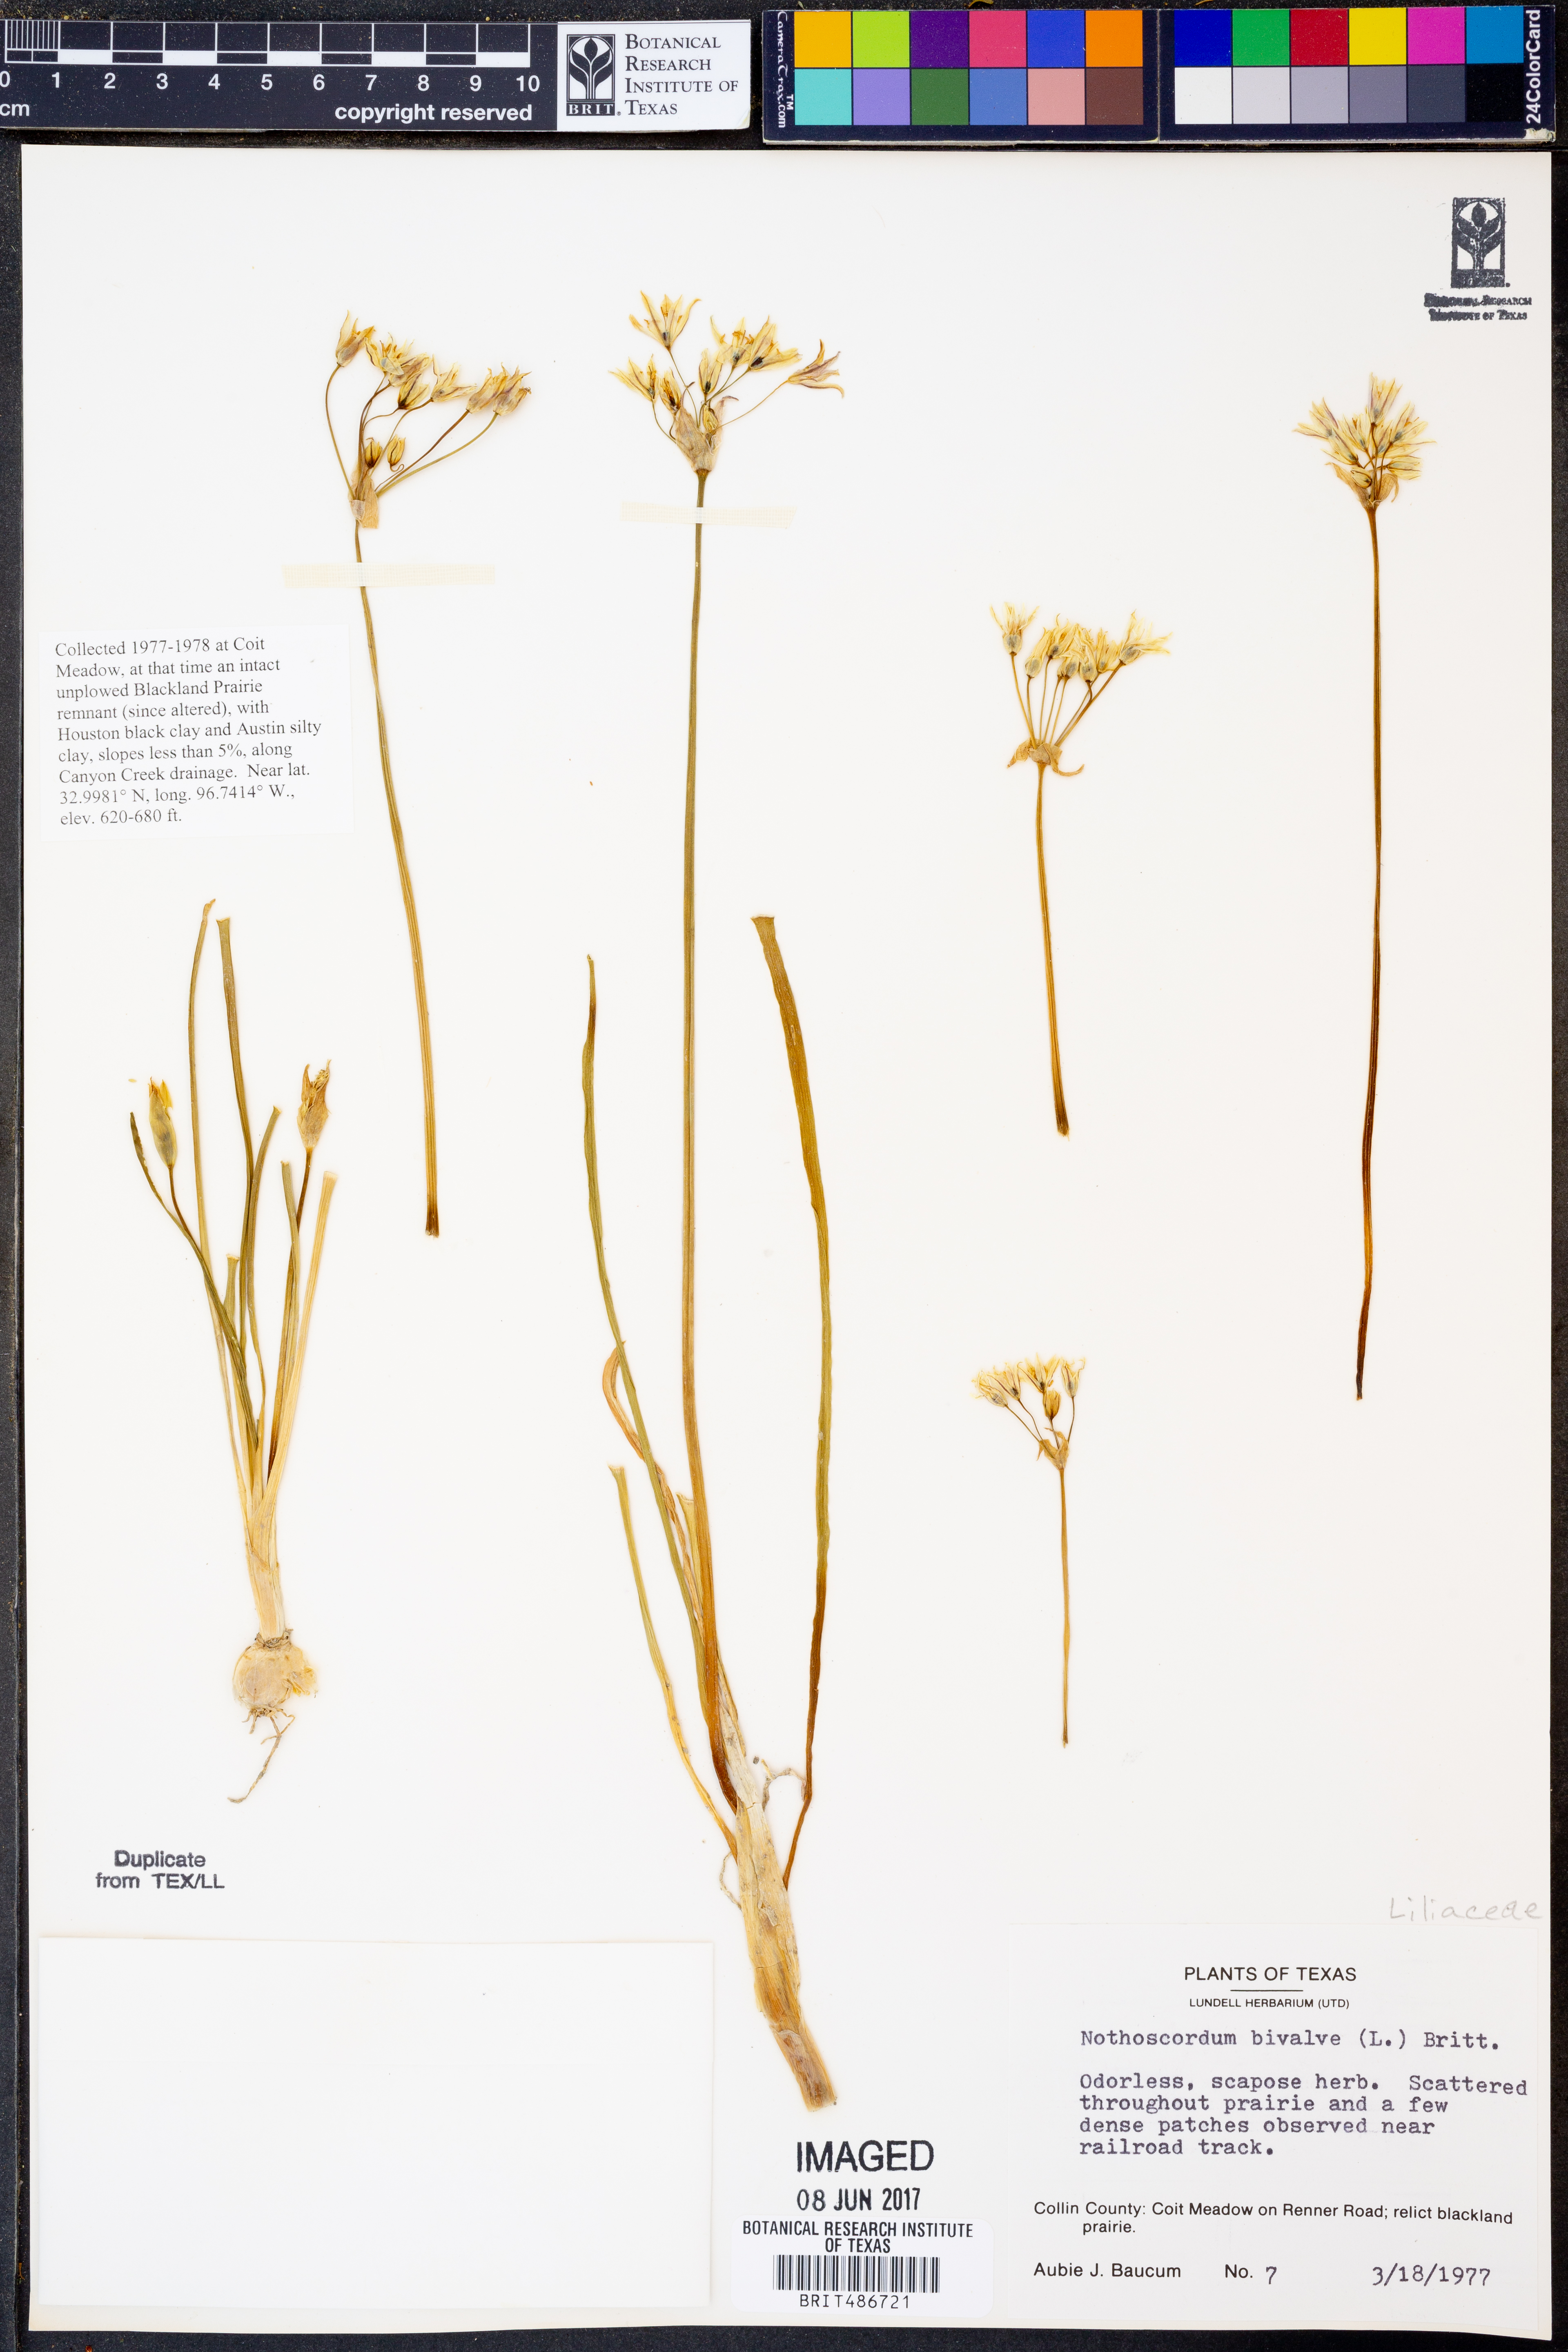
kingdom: Plantae
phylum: Tracheophyta
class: Liliopsida
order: Asparagales
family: Amaryllidaceae
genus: Nothoscordum
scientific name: Nothoscordum bivalve
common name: Crow-poison
